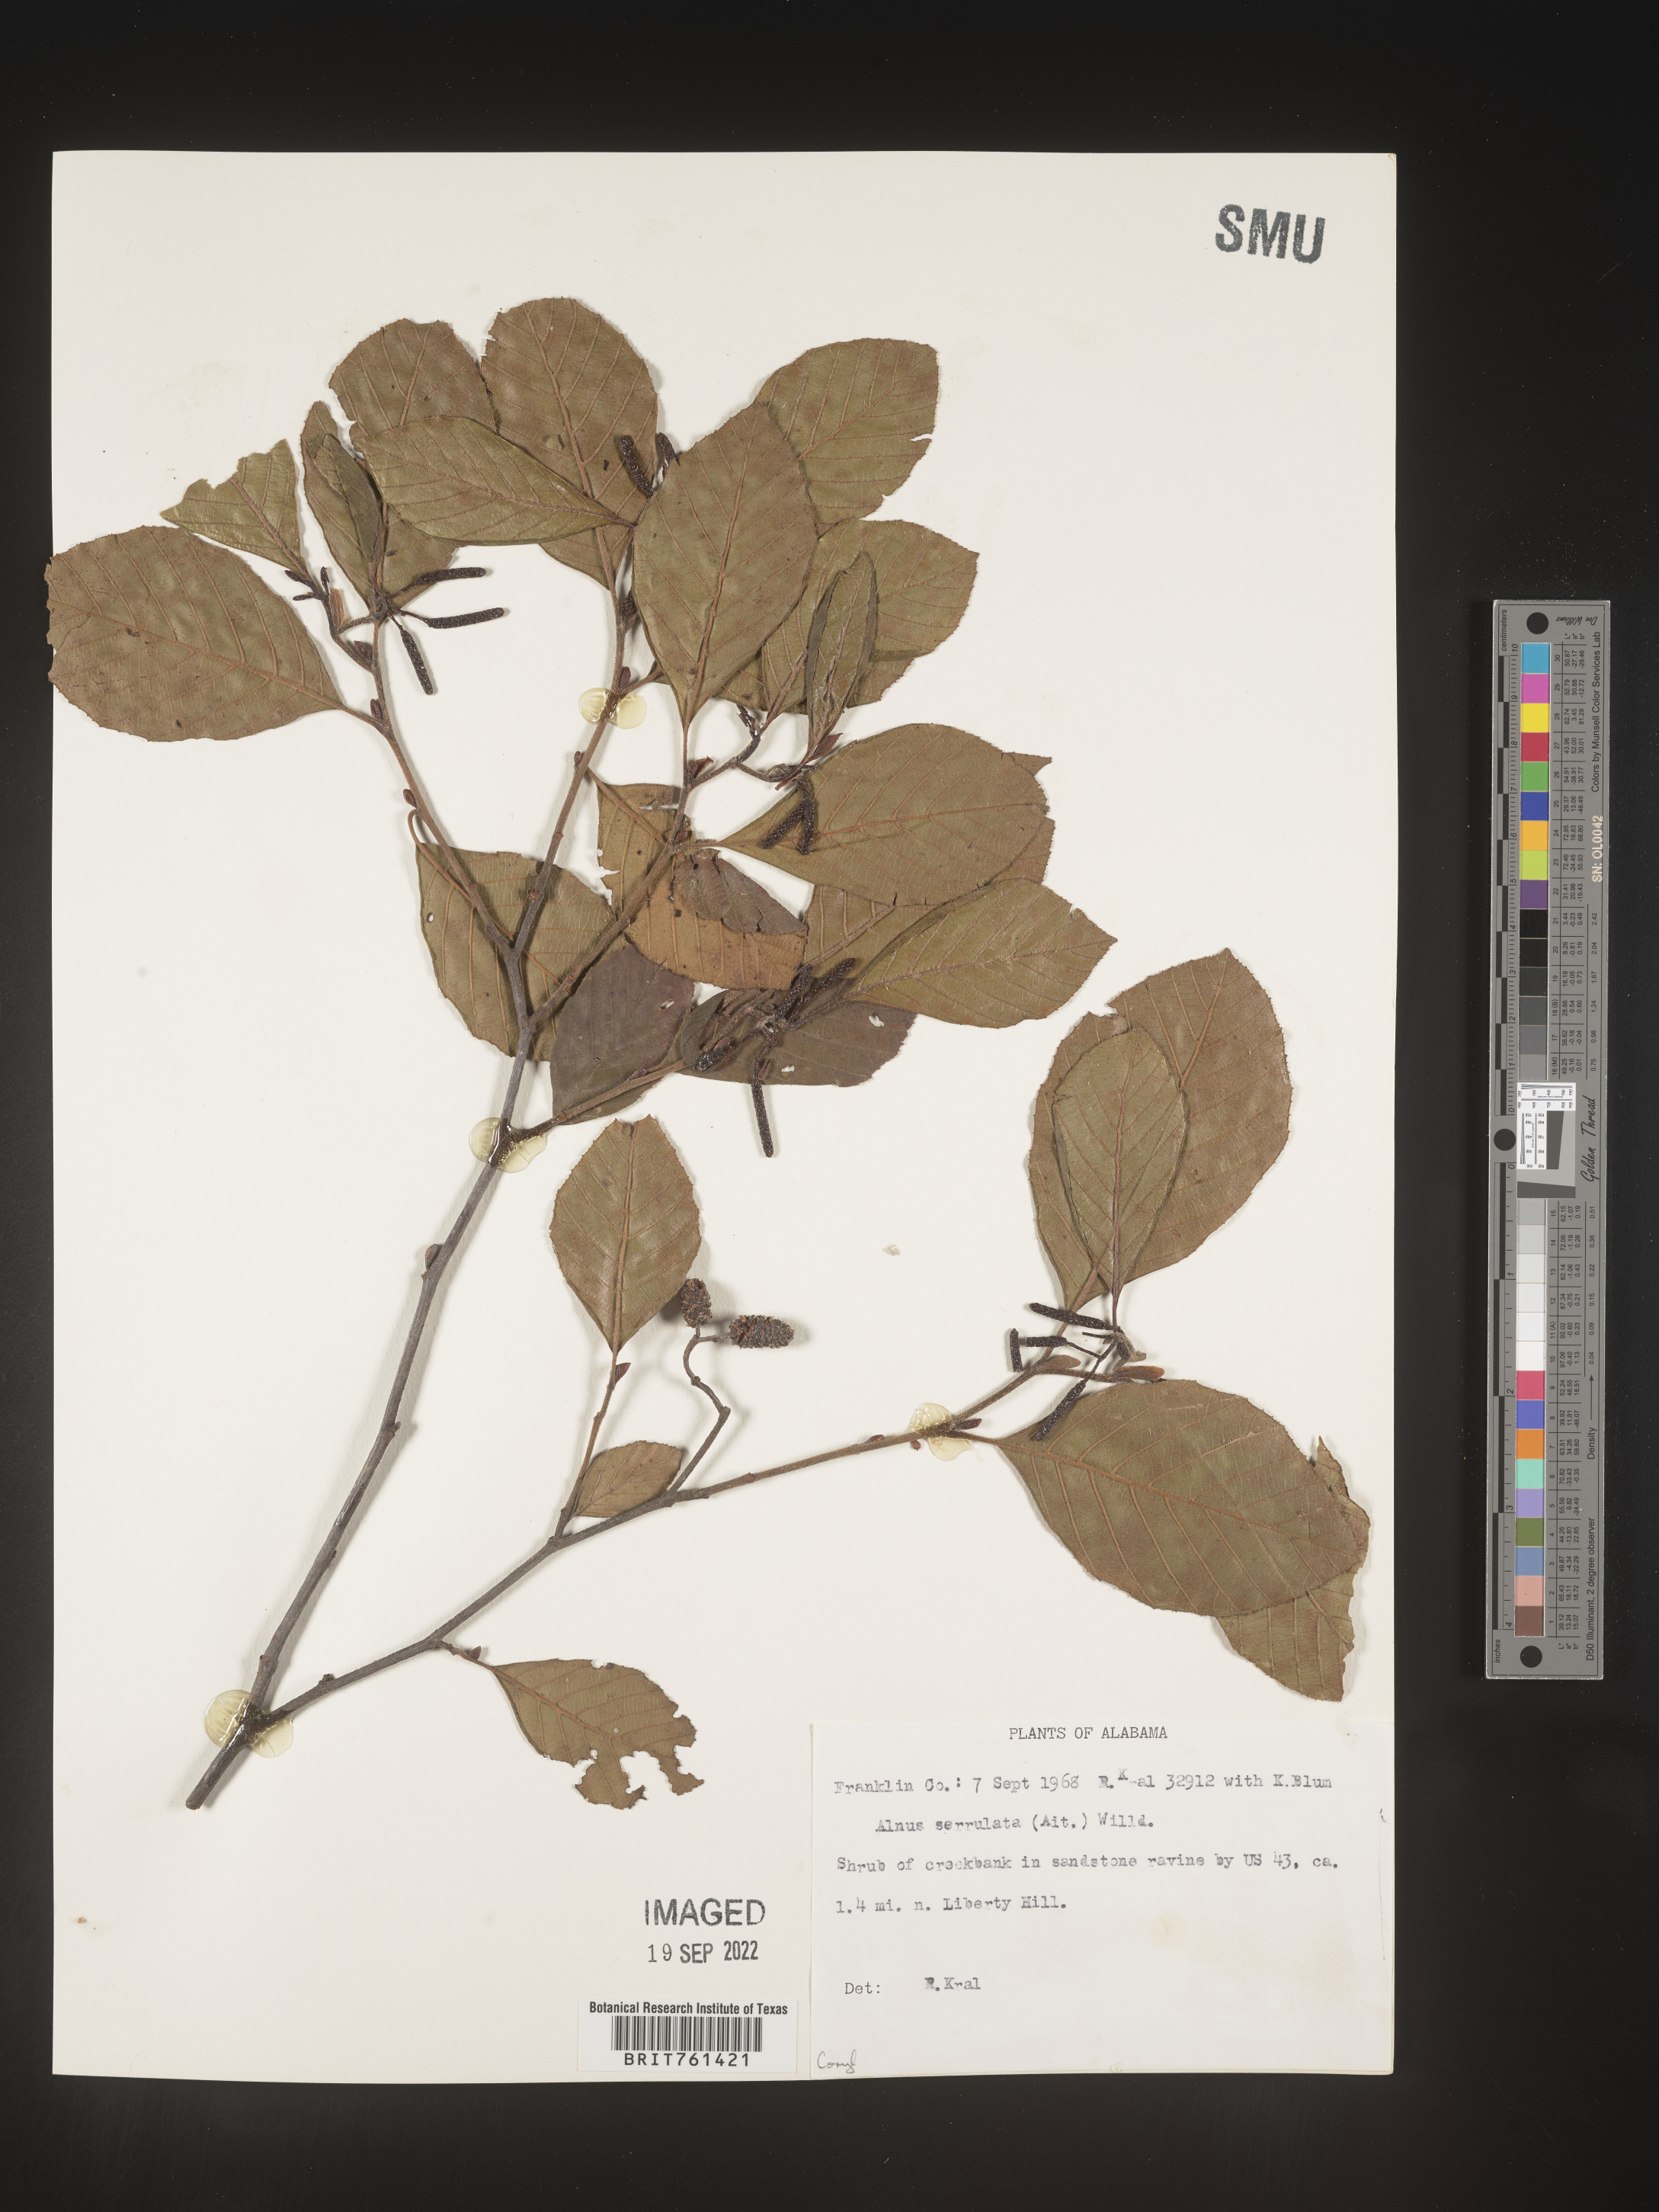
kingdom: Plantae
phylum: Tracheophyta
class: Magnoliopsida
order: Fagales
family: Betulaceae
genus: Alnus
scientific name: Alnus serrulata
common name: Hazel alder
